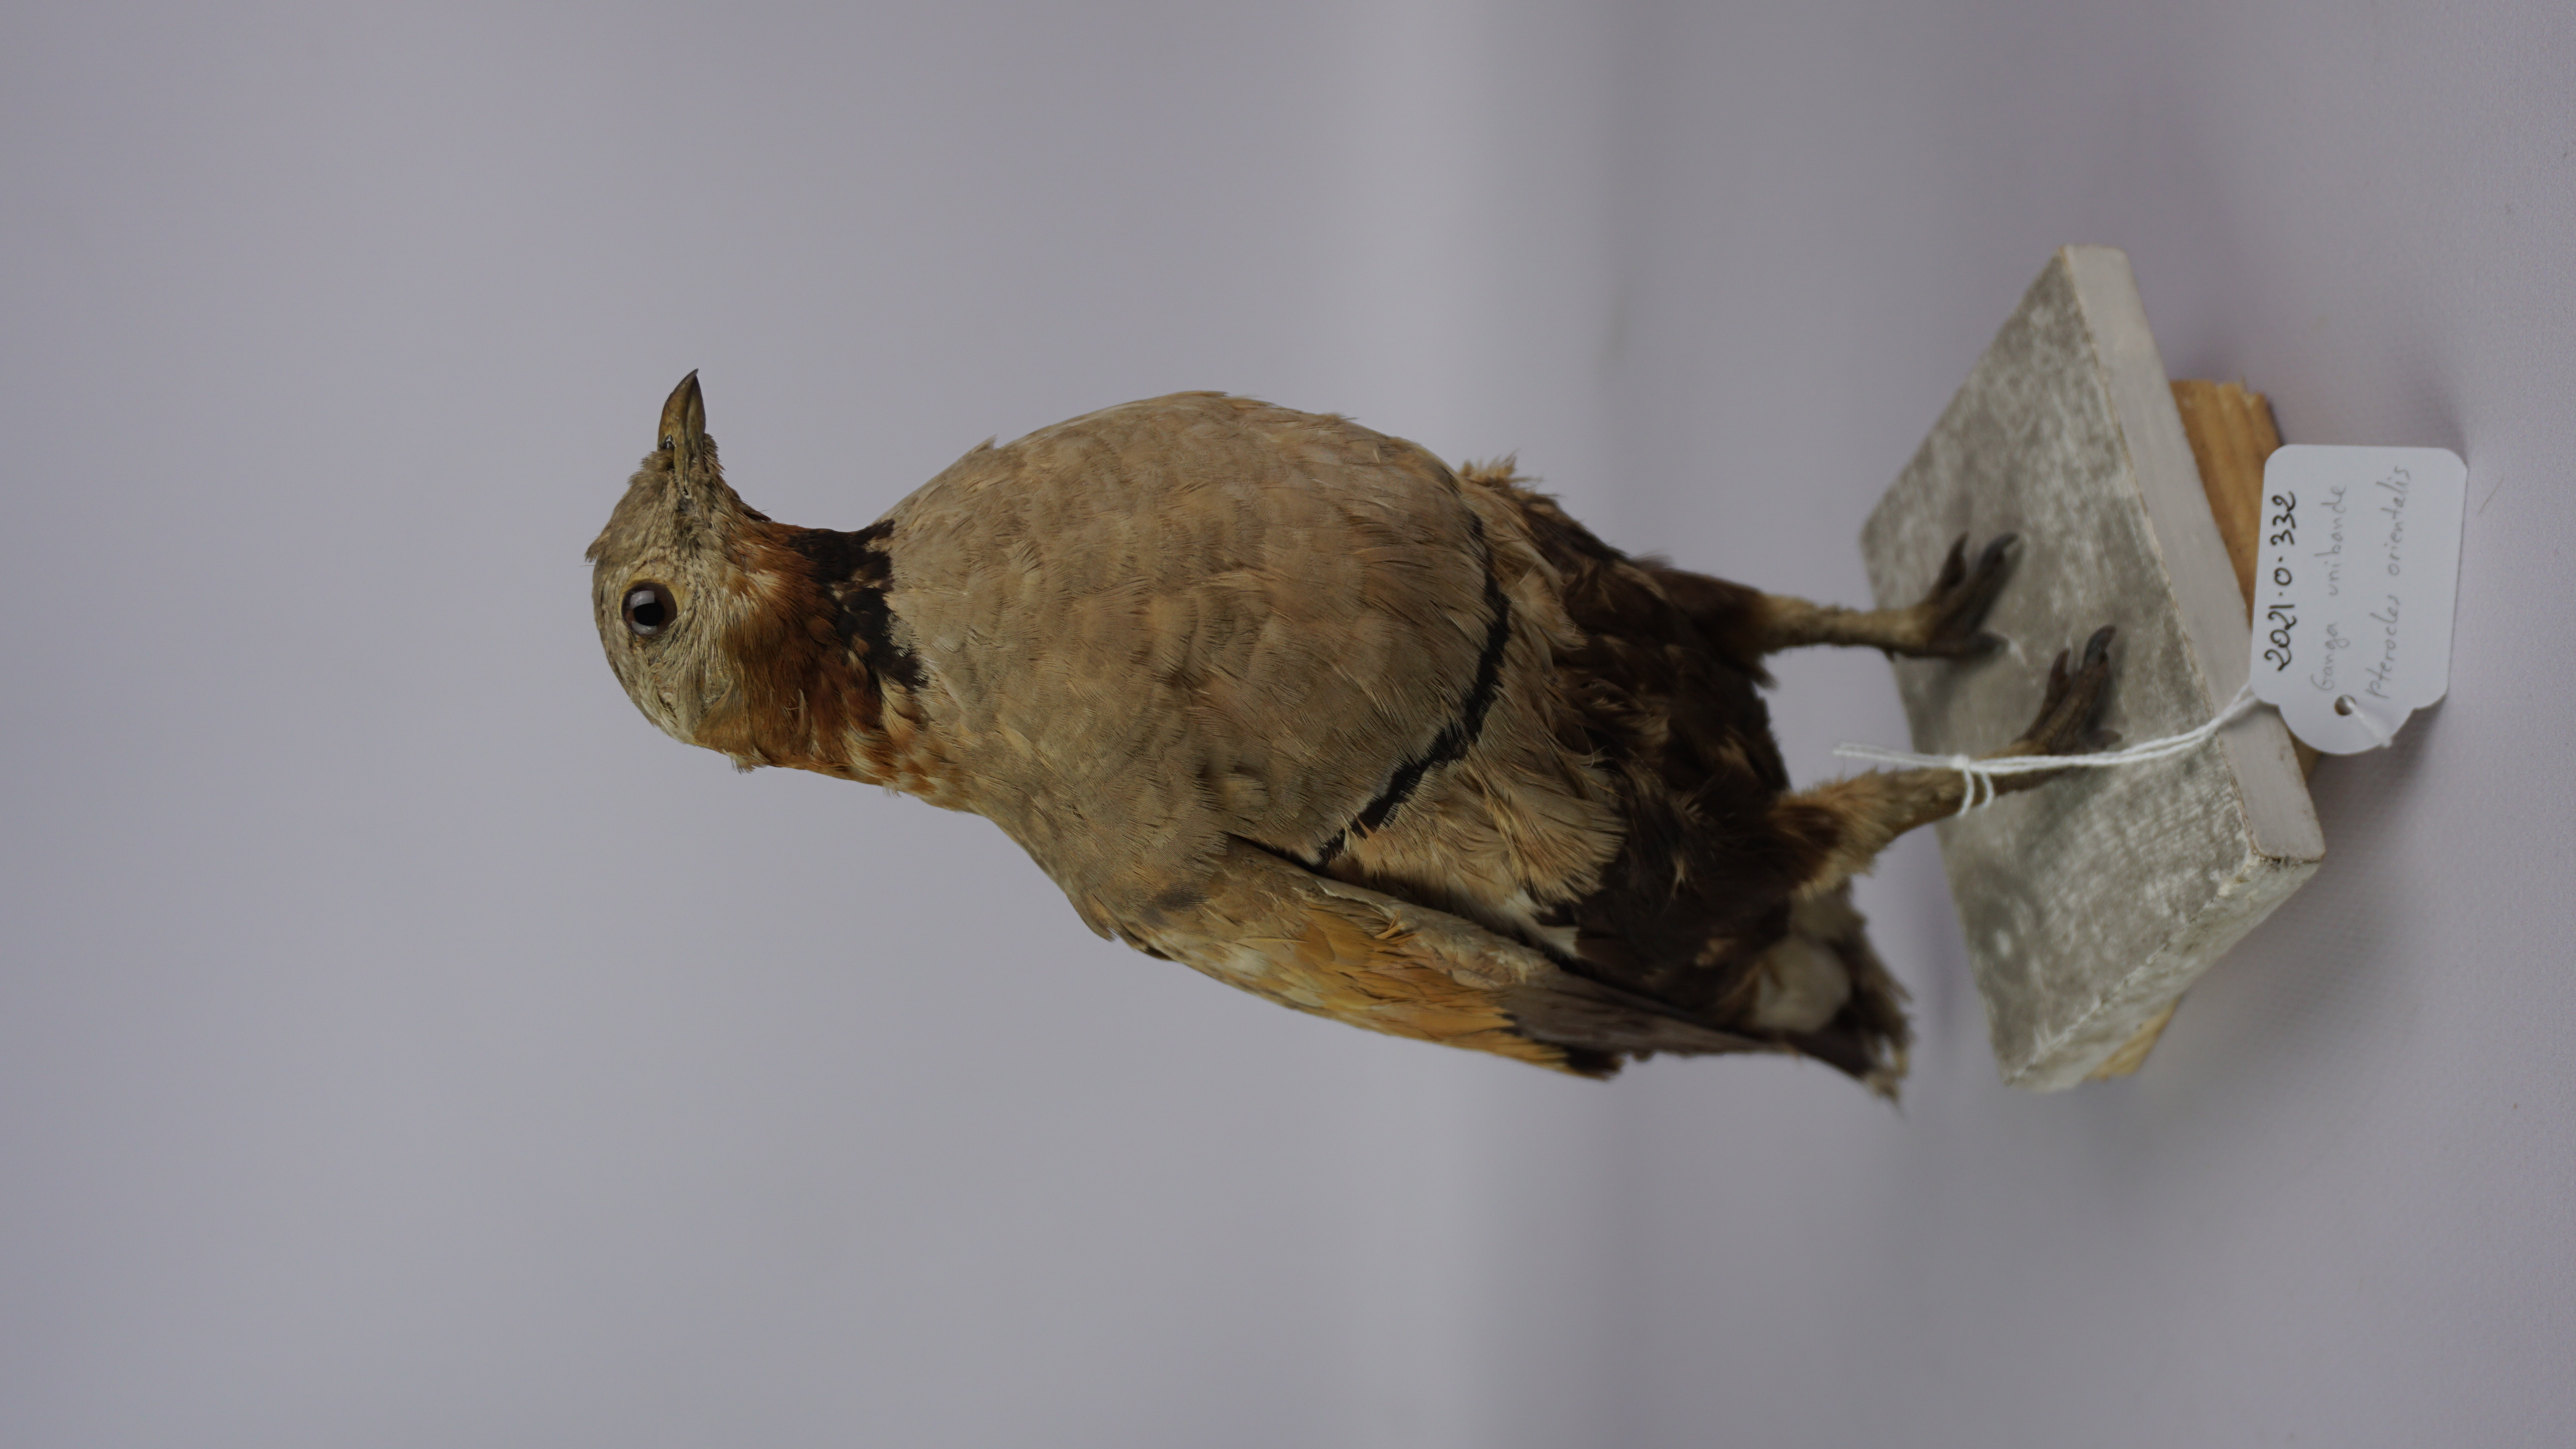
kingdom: Animalia
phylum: Chordata
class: Aves
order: Pteroclidiformes
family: Pteroclididae
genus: Pterocles
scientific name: Pterocles orientalis
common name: Black-bellied sandgrouse
